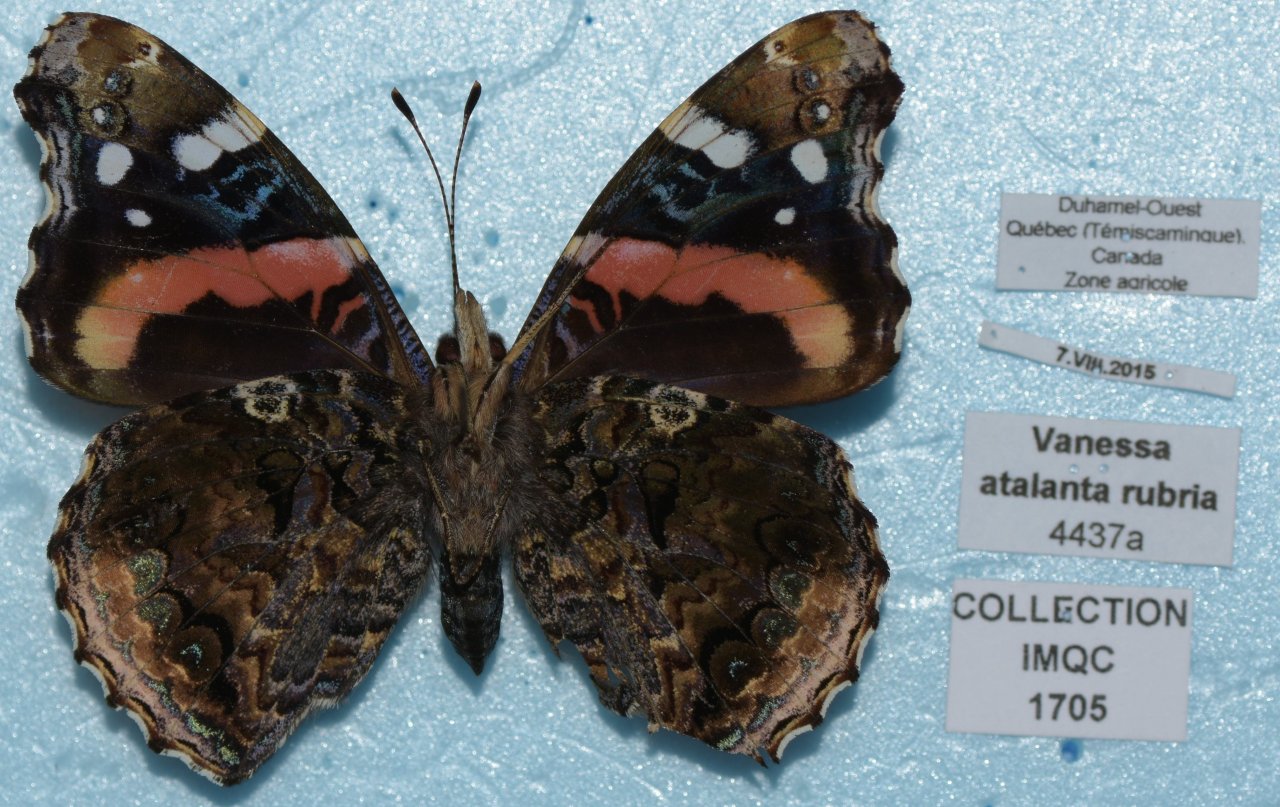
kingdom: Animalia
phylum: Arthropoda
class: Insecta
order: Lepidoptera
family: Nymphalidae
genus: Vanessa
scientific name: Vanessa atalanta
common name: Red Admiral
